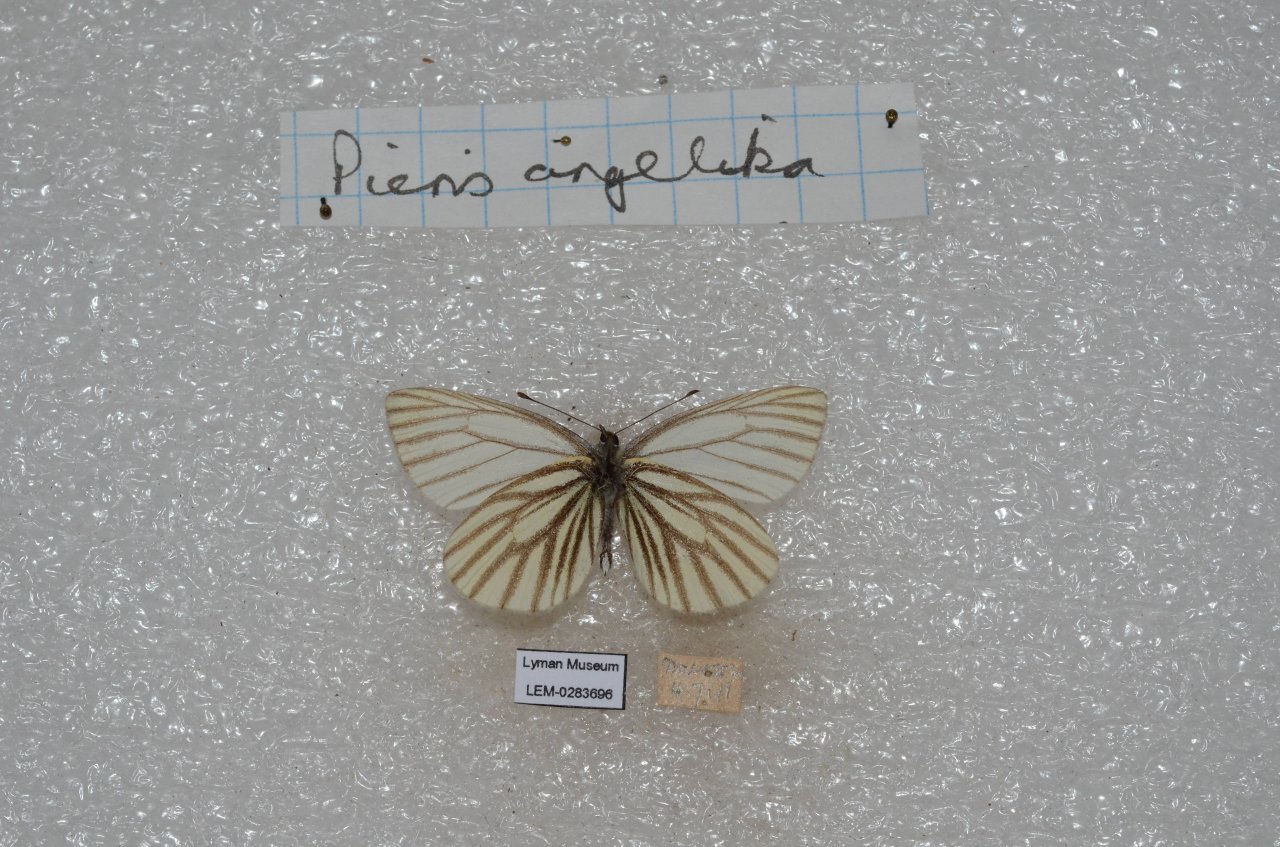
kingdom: Animalia
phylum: Arthropoda
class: Insecta
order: Lepidoptera
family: Pieridae
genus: Pieris
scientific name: Pieris angelika
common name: Arctic White
